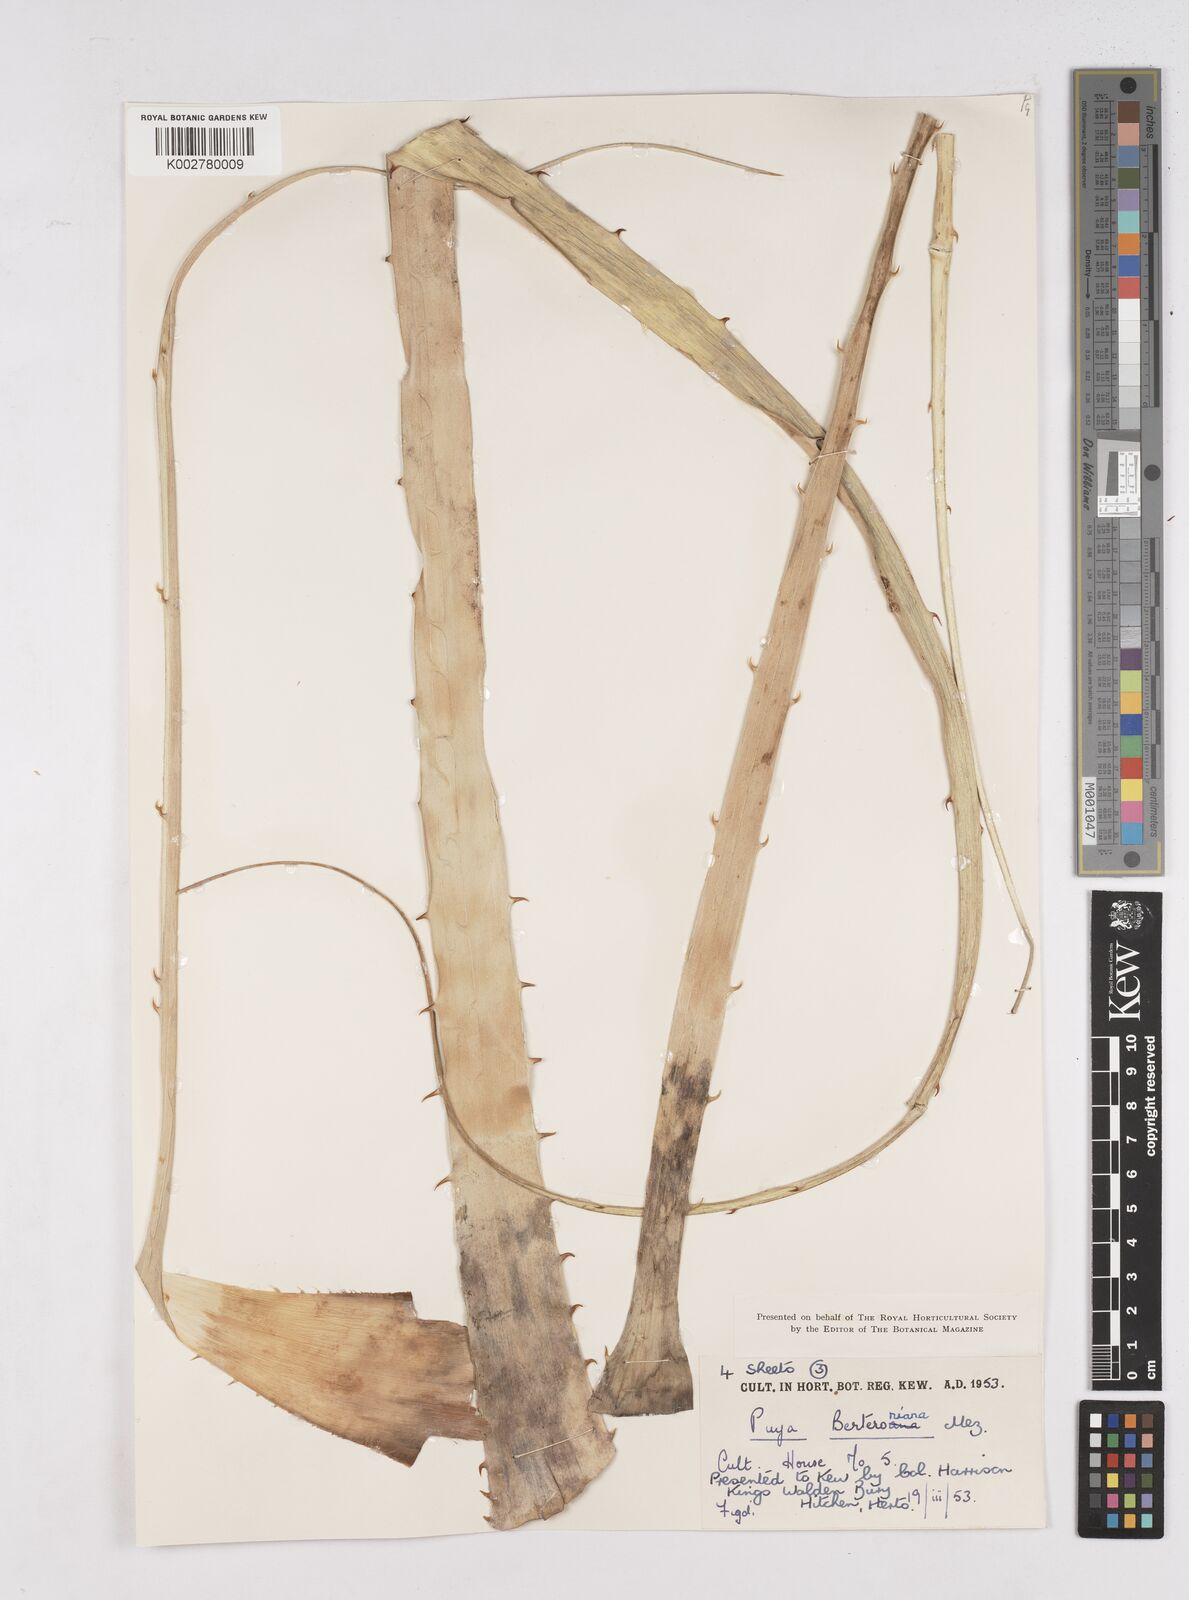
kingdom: Plantae
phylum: Tracheophyta
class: Liliopsida
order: Poales
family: Bromeliaceae
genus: Puya
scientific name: Puya berteroniana
